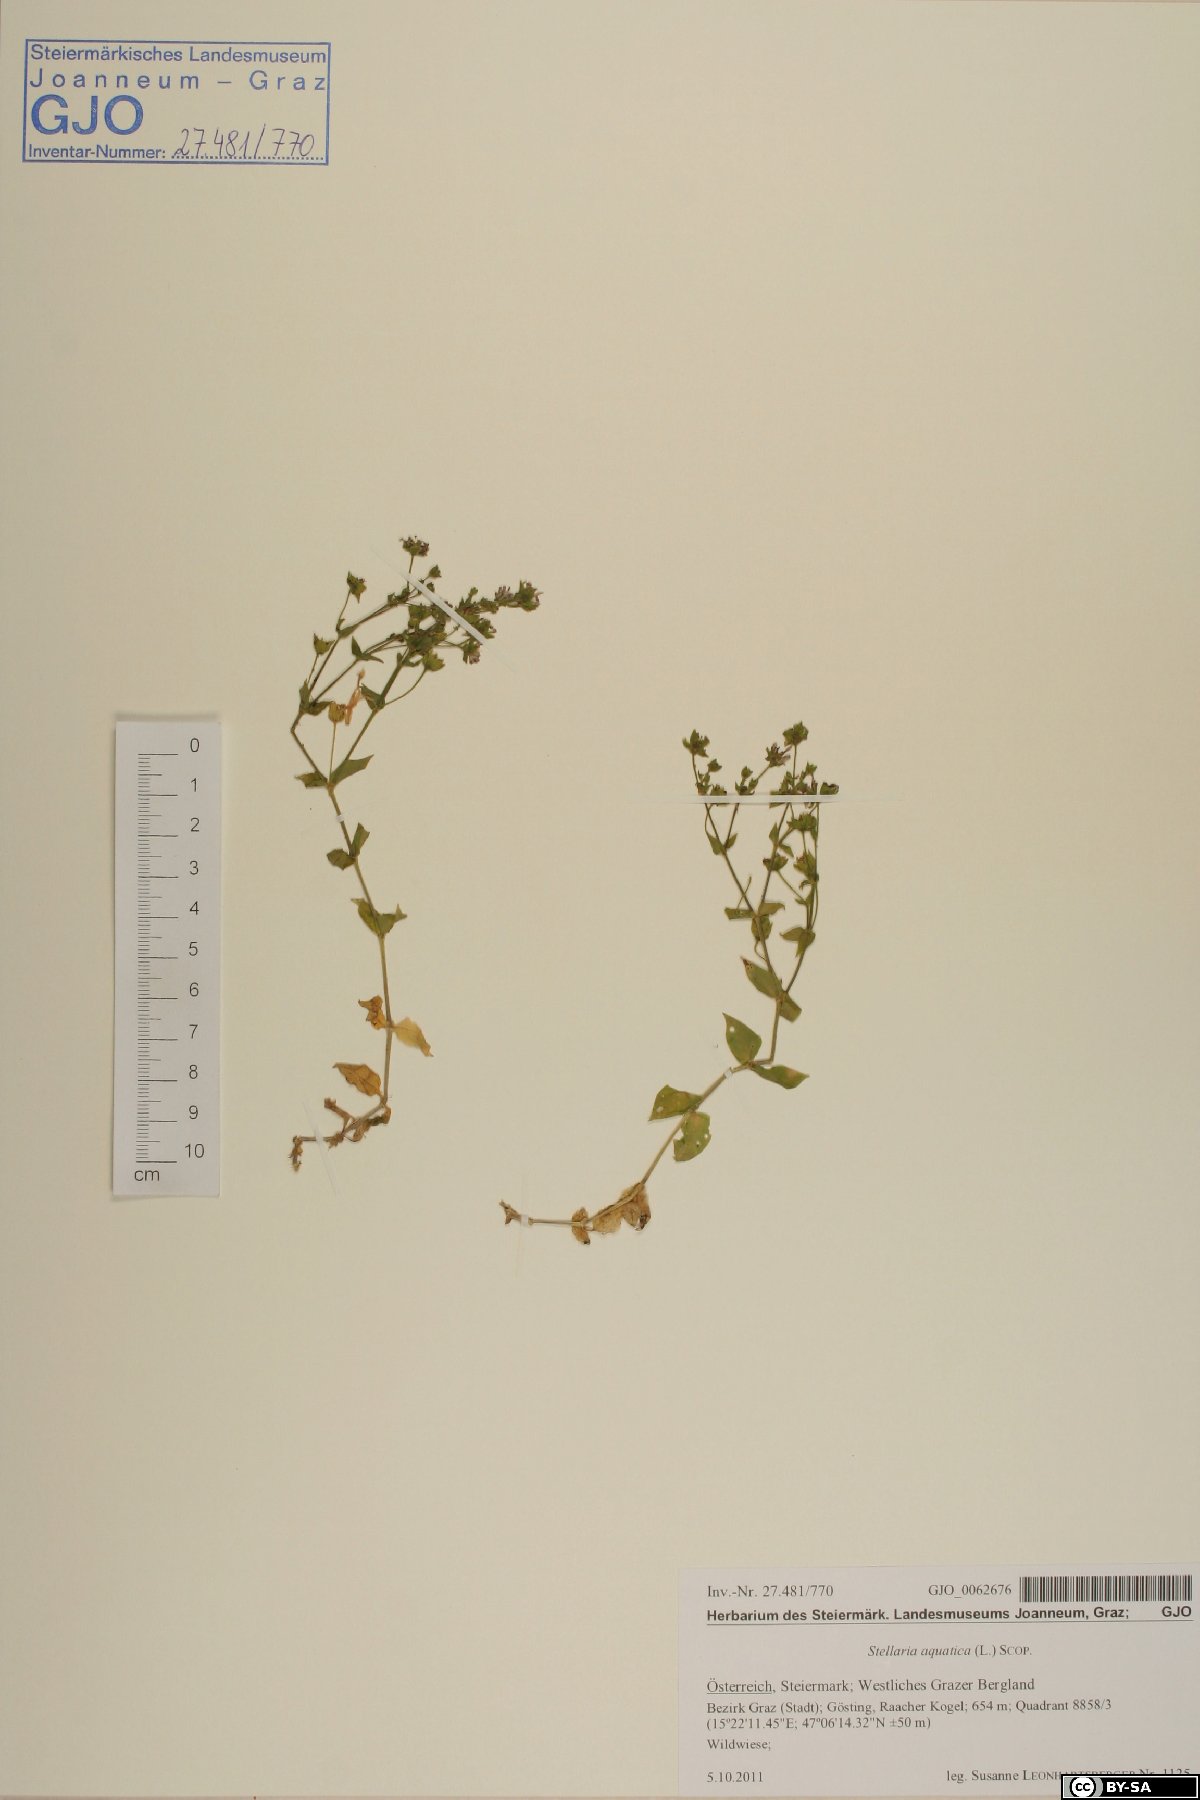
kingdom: Plantae
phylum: Tracheophyta
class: Magnoliopsida
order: Caryophyllales
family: Caryophyllaceae
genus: Stellaria
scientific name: Stellaria aquatica
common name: Water chickweed
